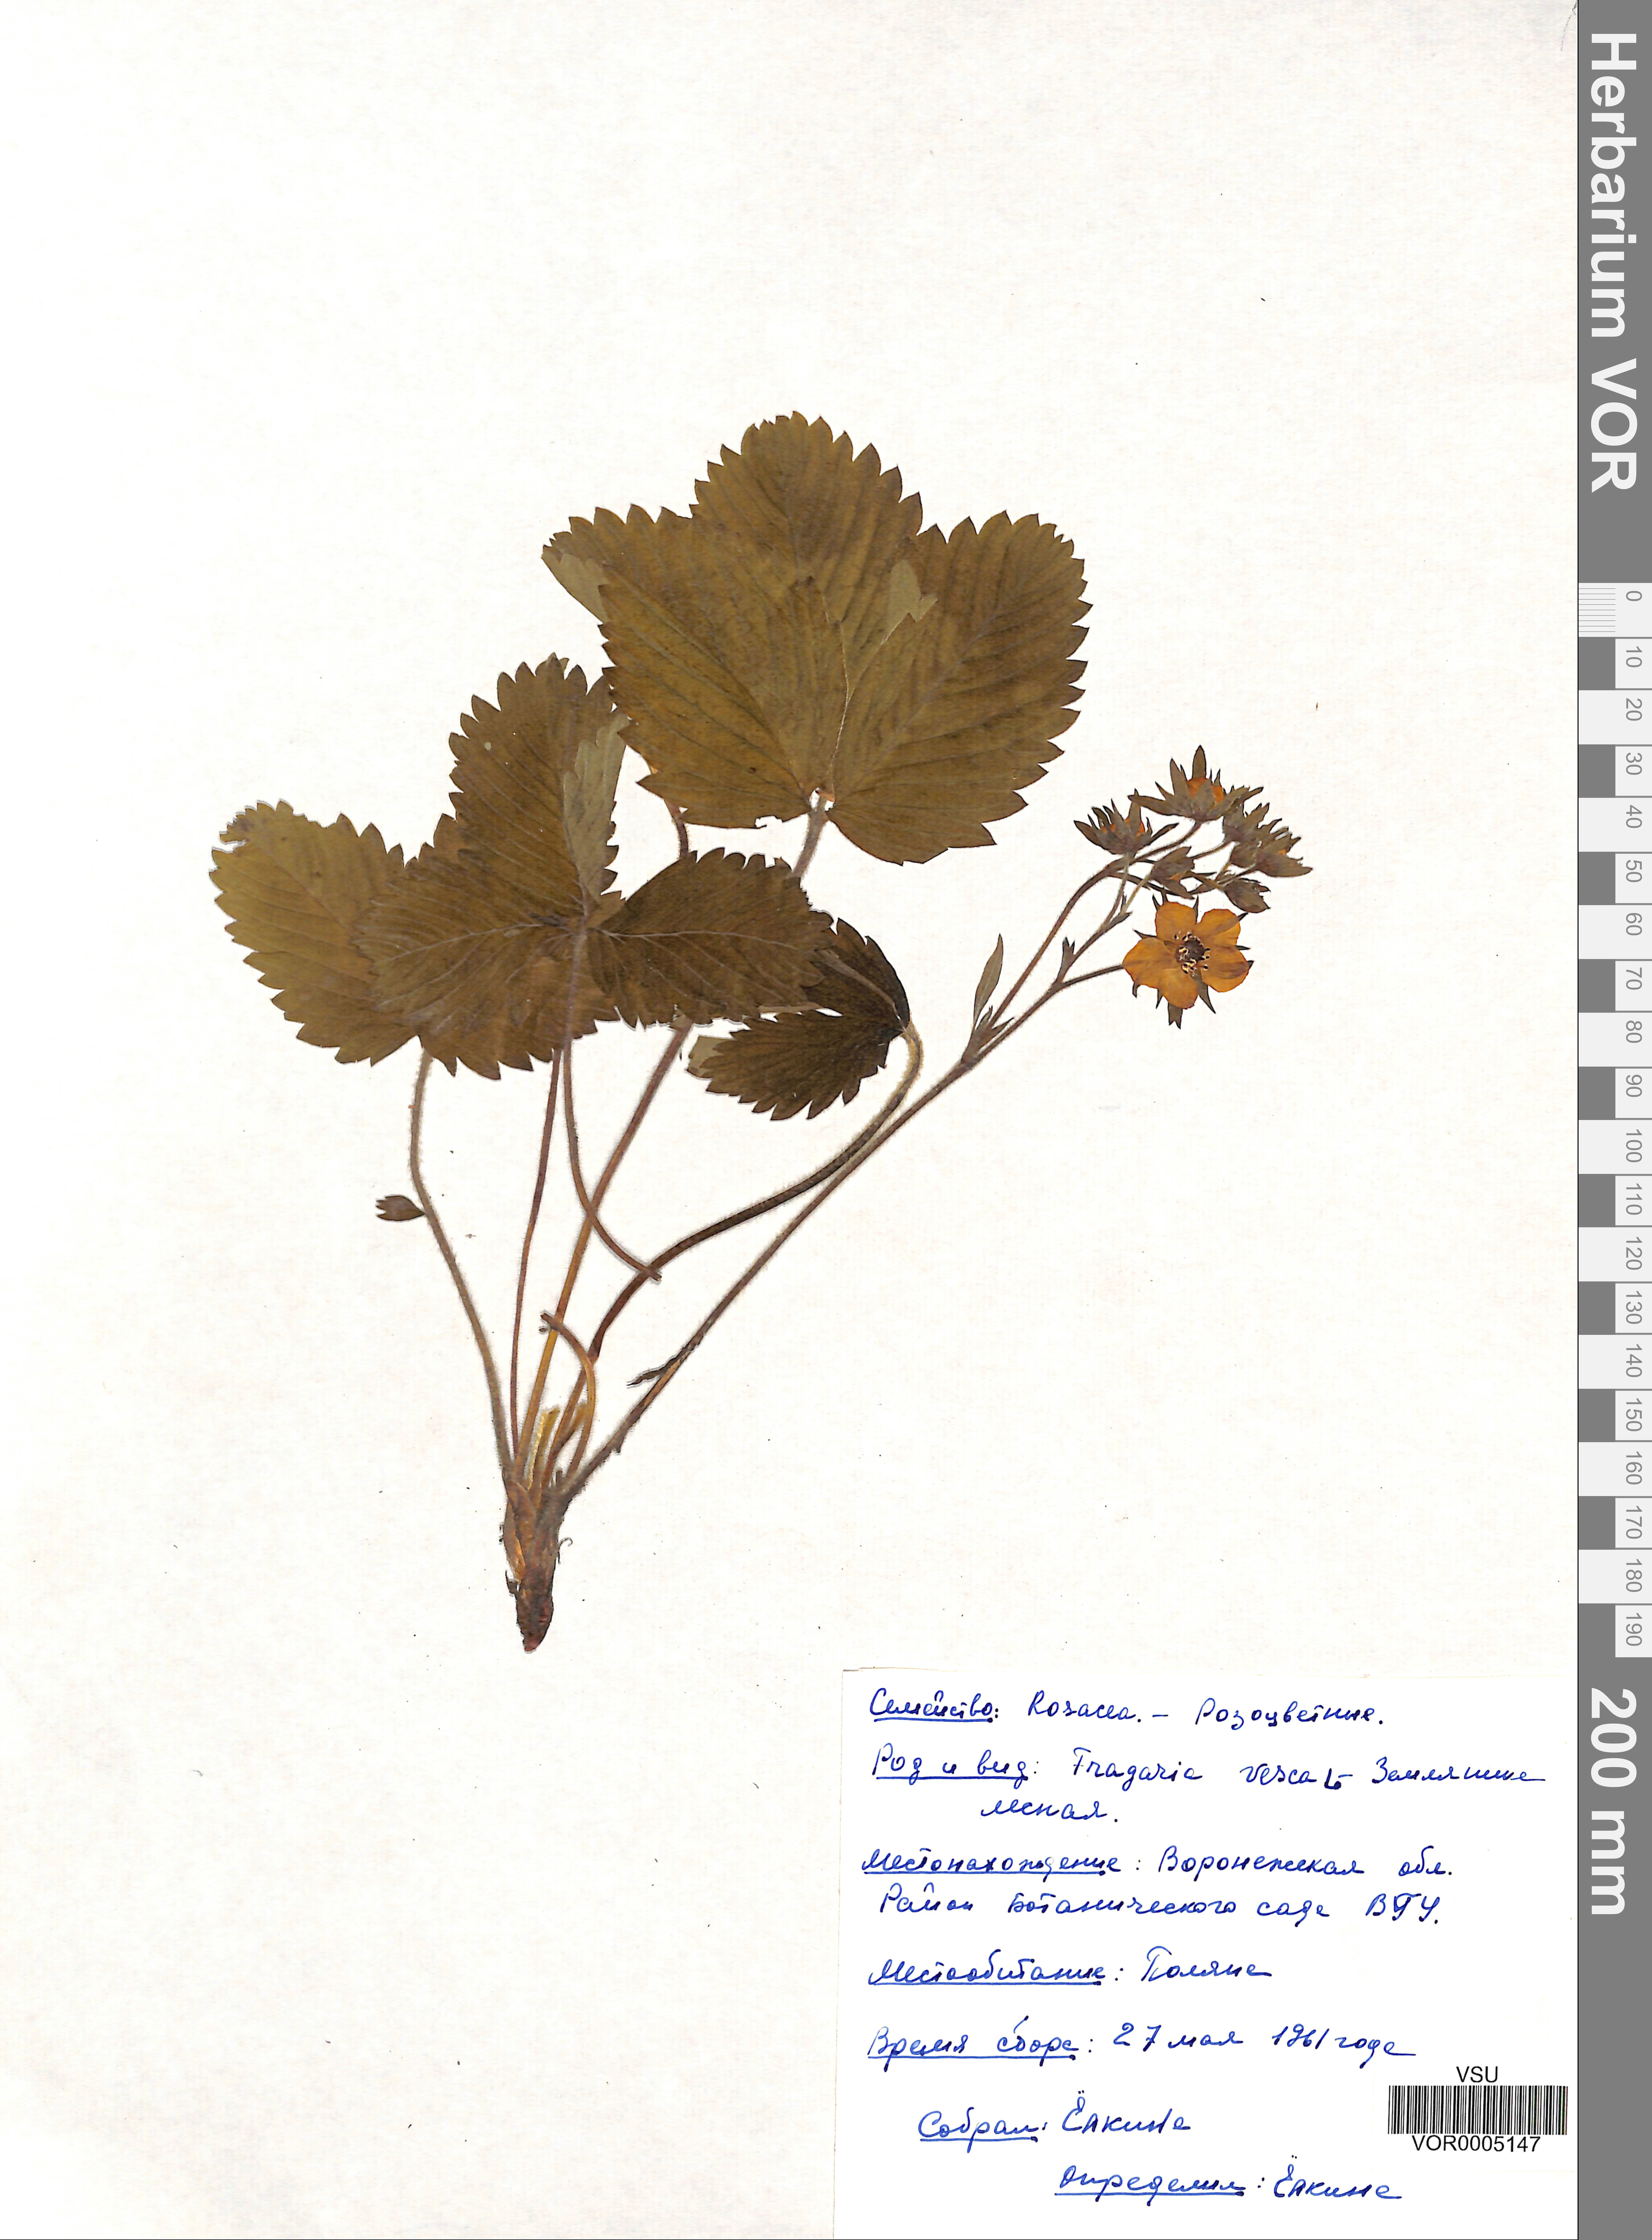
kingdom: Plantae
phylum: Tracheophyta
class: Magnoliopsida
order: Rosales
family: Rosaceae
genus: Fragaria
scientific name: Fragaria vesca
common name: Wild strawberry
